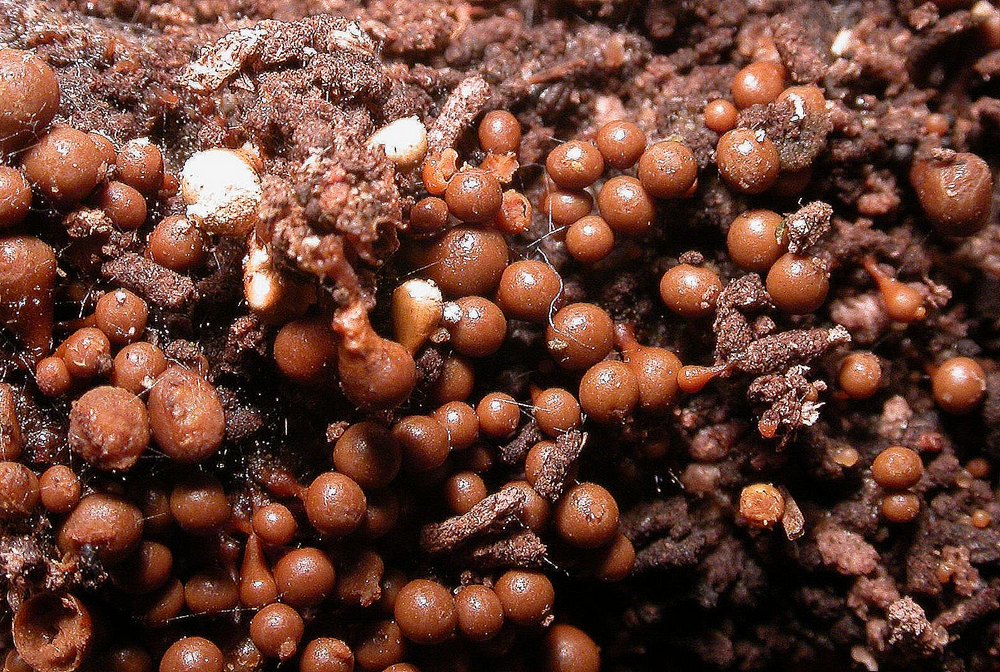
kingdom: Protozoa
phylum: Mycetozoa
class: Myxomycetes
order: Trichiales
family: Arcyriaceae
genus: Hemitrichia
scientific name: Hemitrichia clavata
